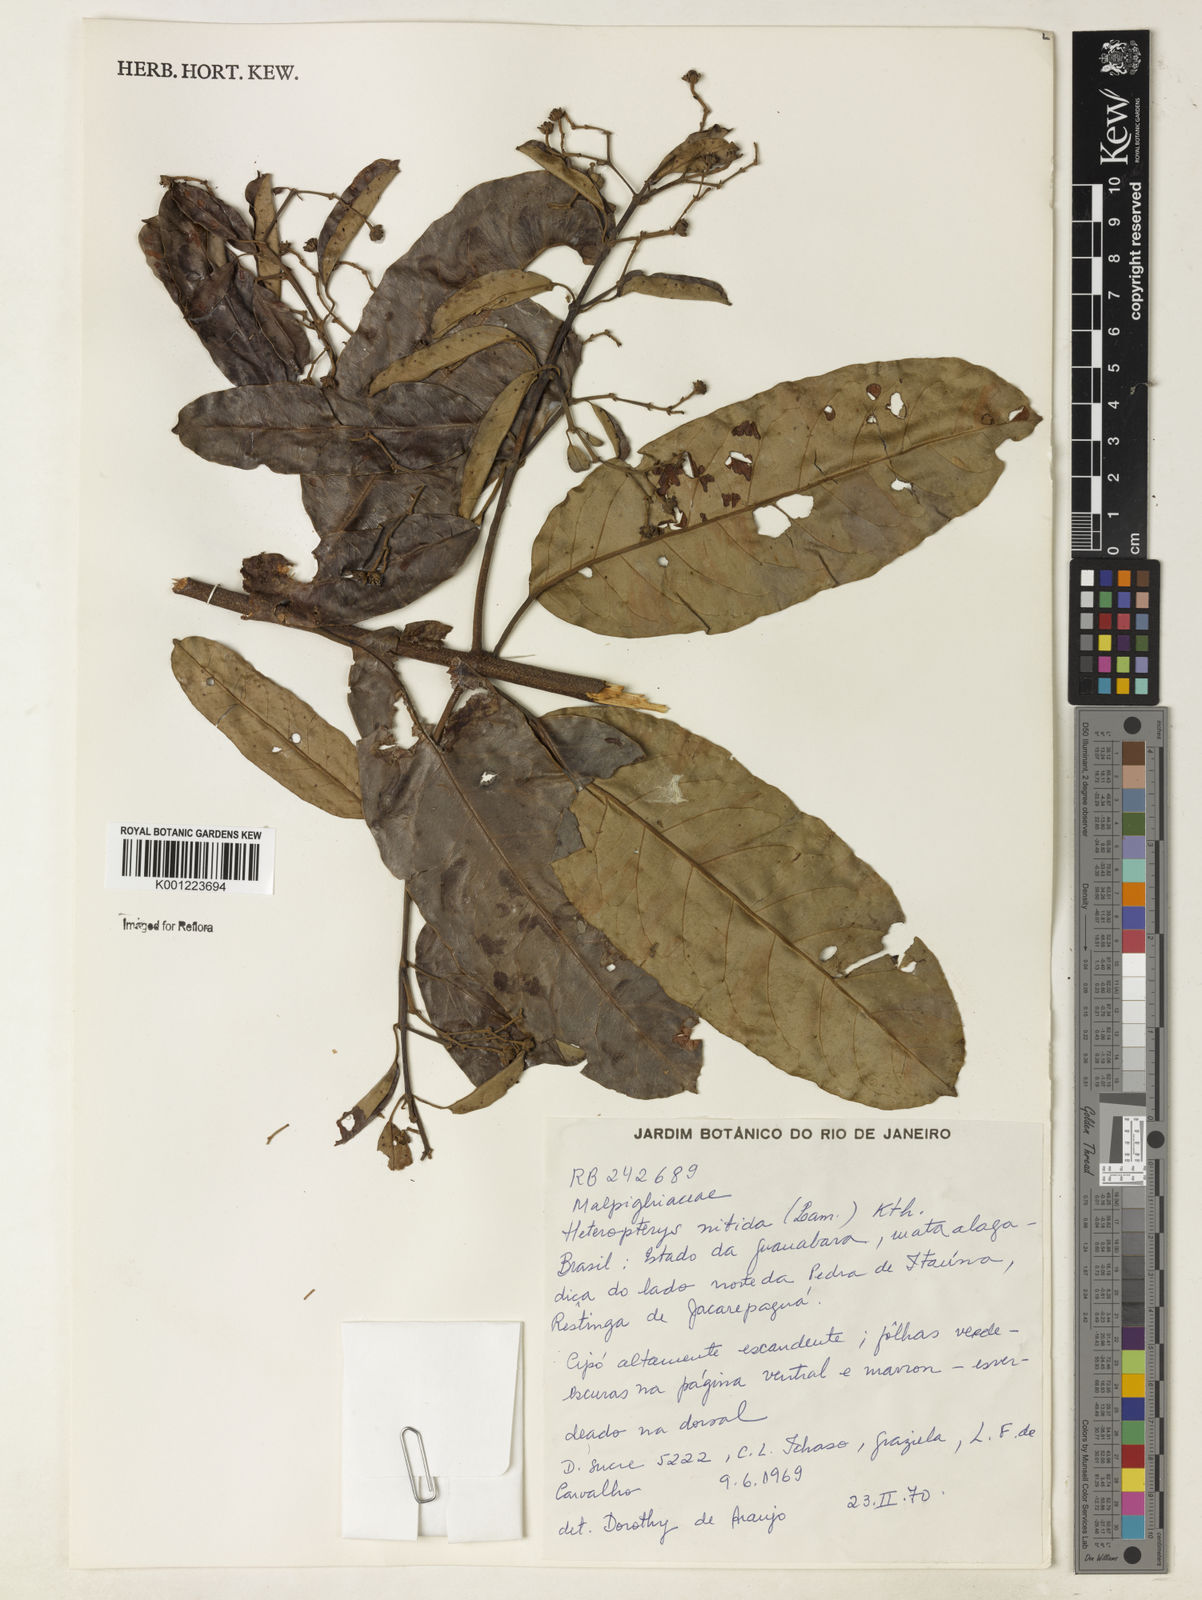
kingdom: Plantae
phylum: Tracheophyta
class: Magnoliopsida
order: Malpighiales
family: Malpighiaceae
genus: Heteropterys
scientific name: Heteropterys nitida
